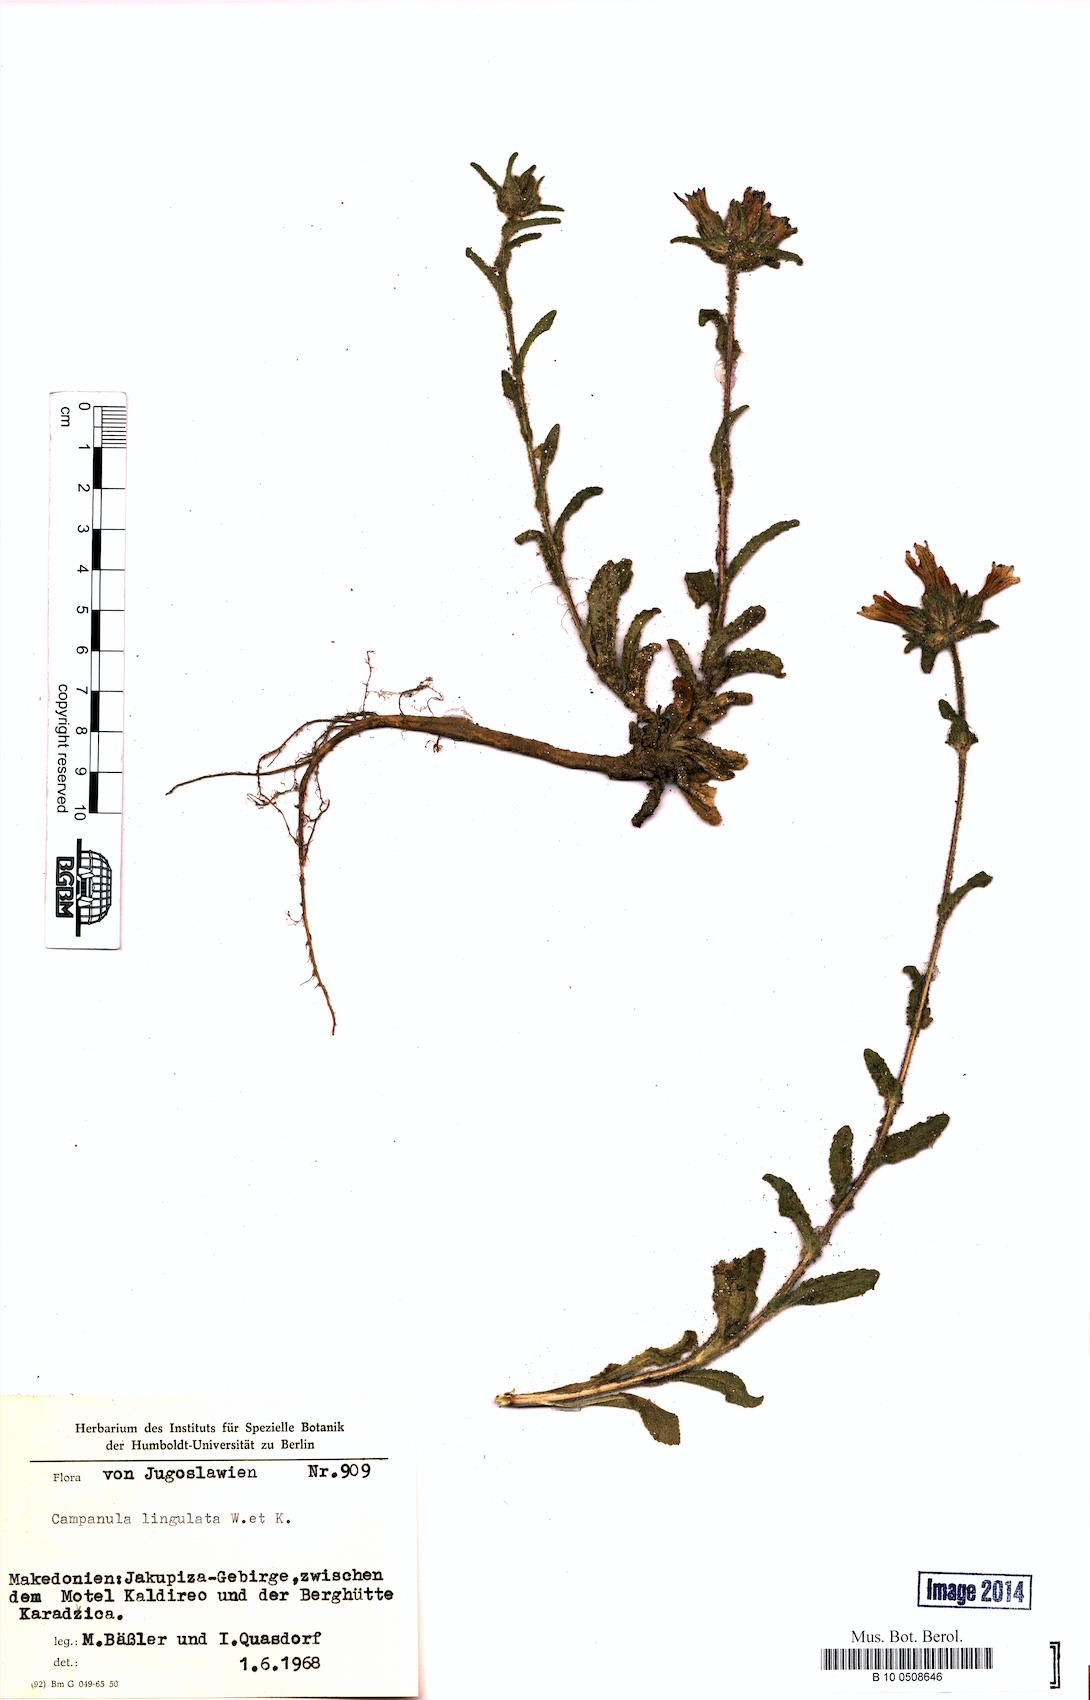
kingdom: Plantae
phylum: Tracheophyta
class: Magnoliopsida
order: Asterales
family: Campanulaceae
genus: Campanula
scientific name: Campanula lingulata
